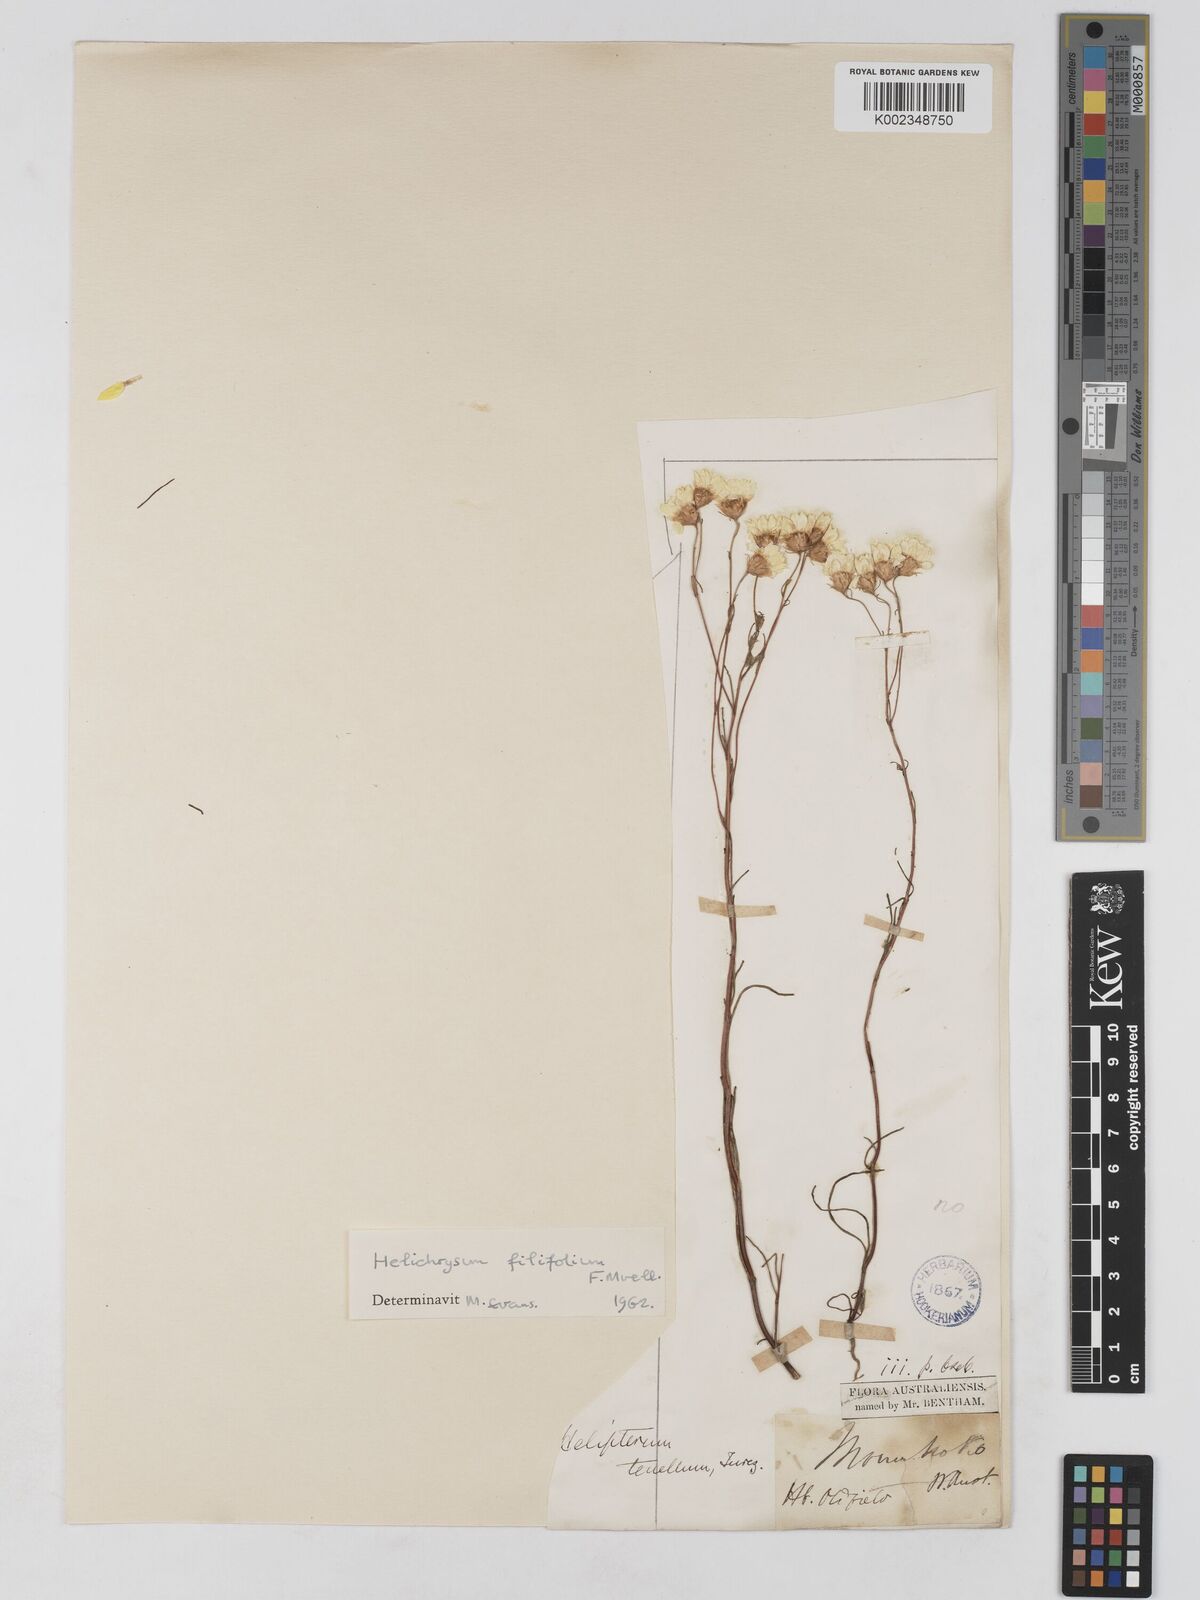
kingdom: Plantae
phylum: Tracheophyta
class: Magnoliopsida
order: Asterales
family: Asteraceae
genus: Schoenia
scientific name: Schoenia filifolia
